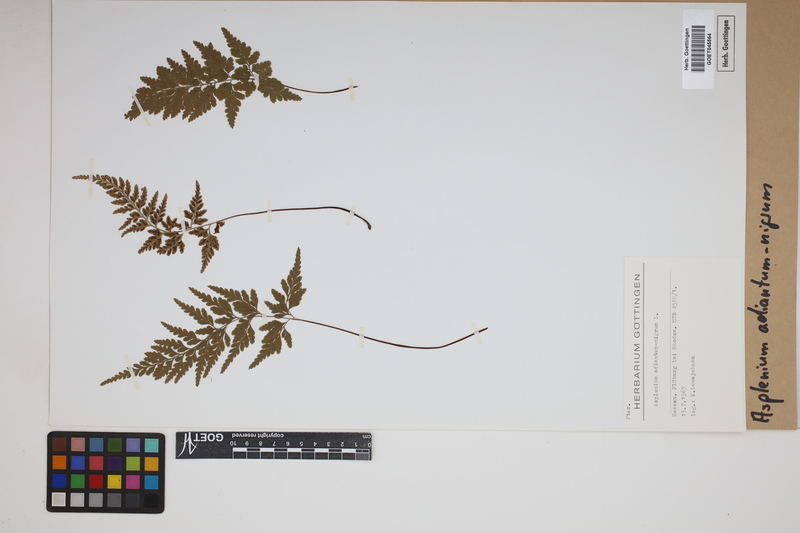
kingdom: Plantae
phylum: Tracheophyta
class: Polypodiopsida
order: Polypodiales
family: Aspleniaceae
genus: Asplenium
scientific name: Asplenium adiantum-nigrum
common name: Black spleenwort
